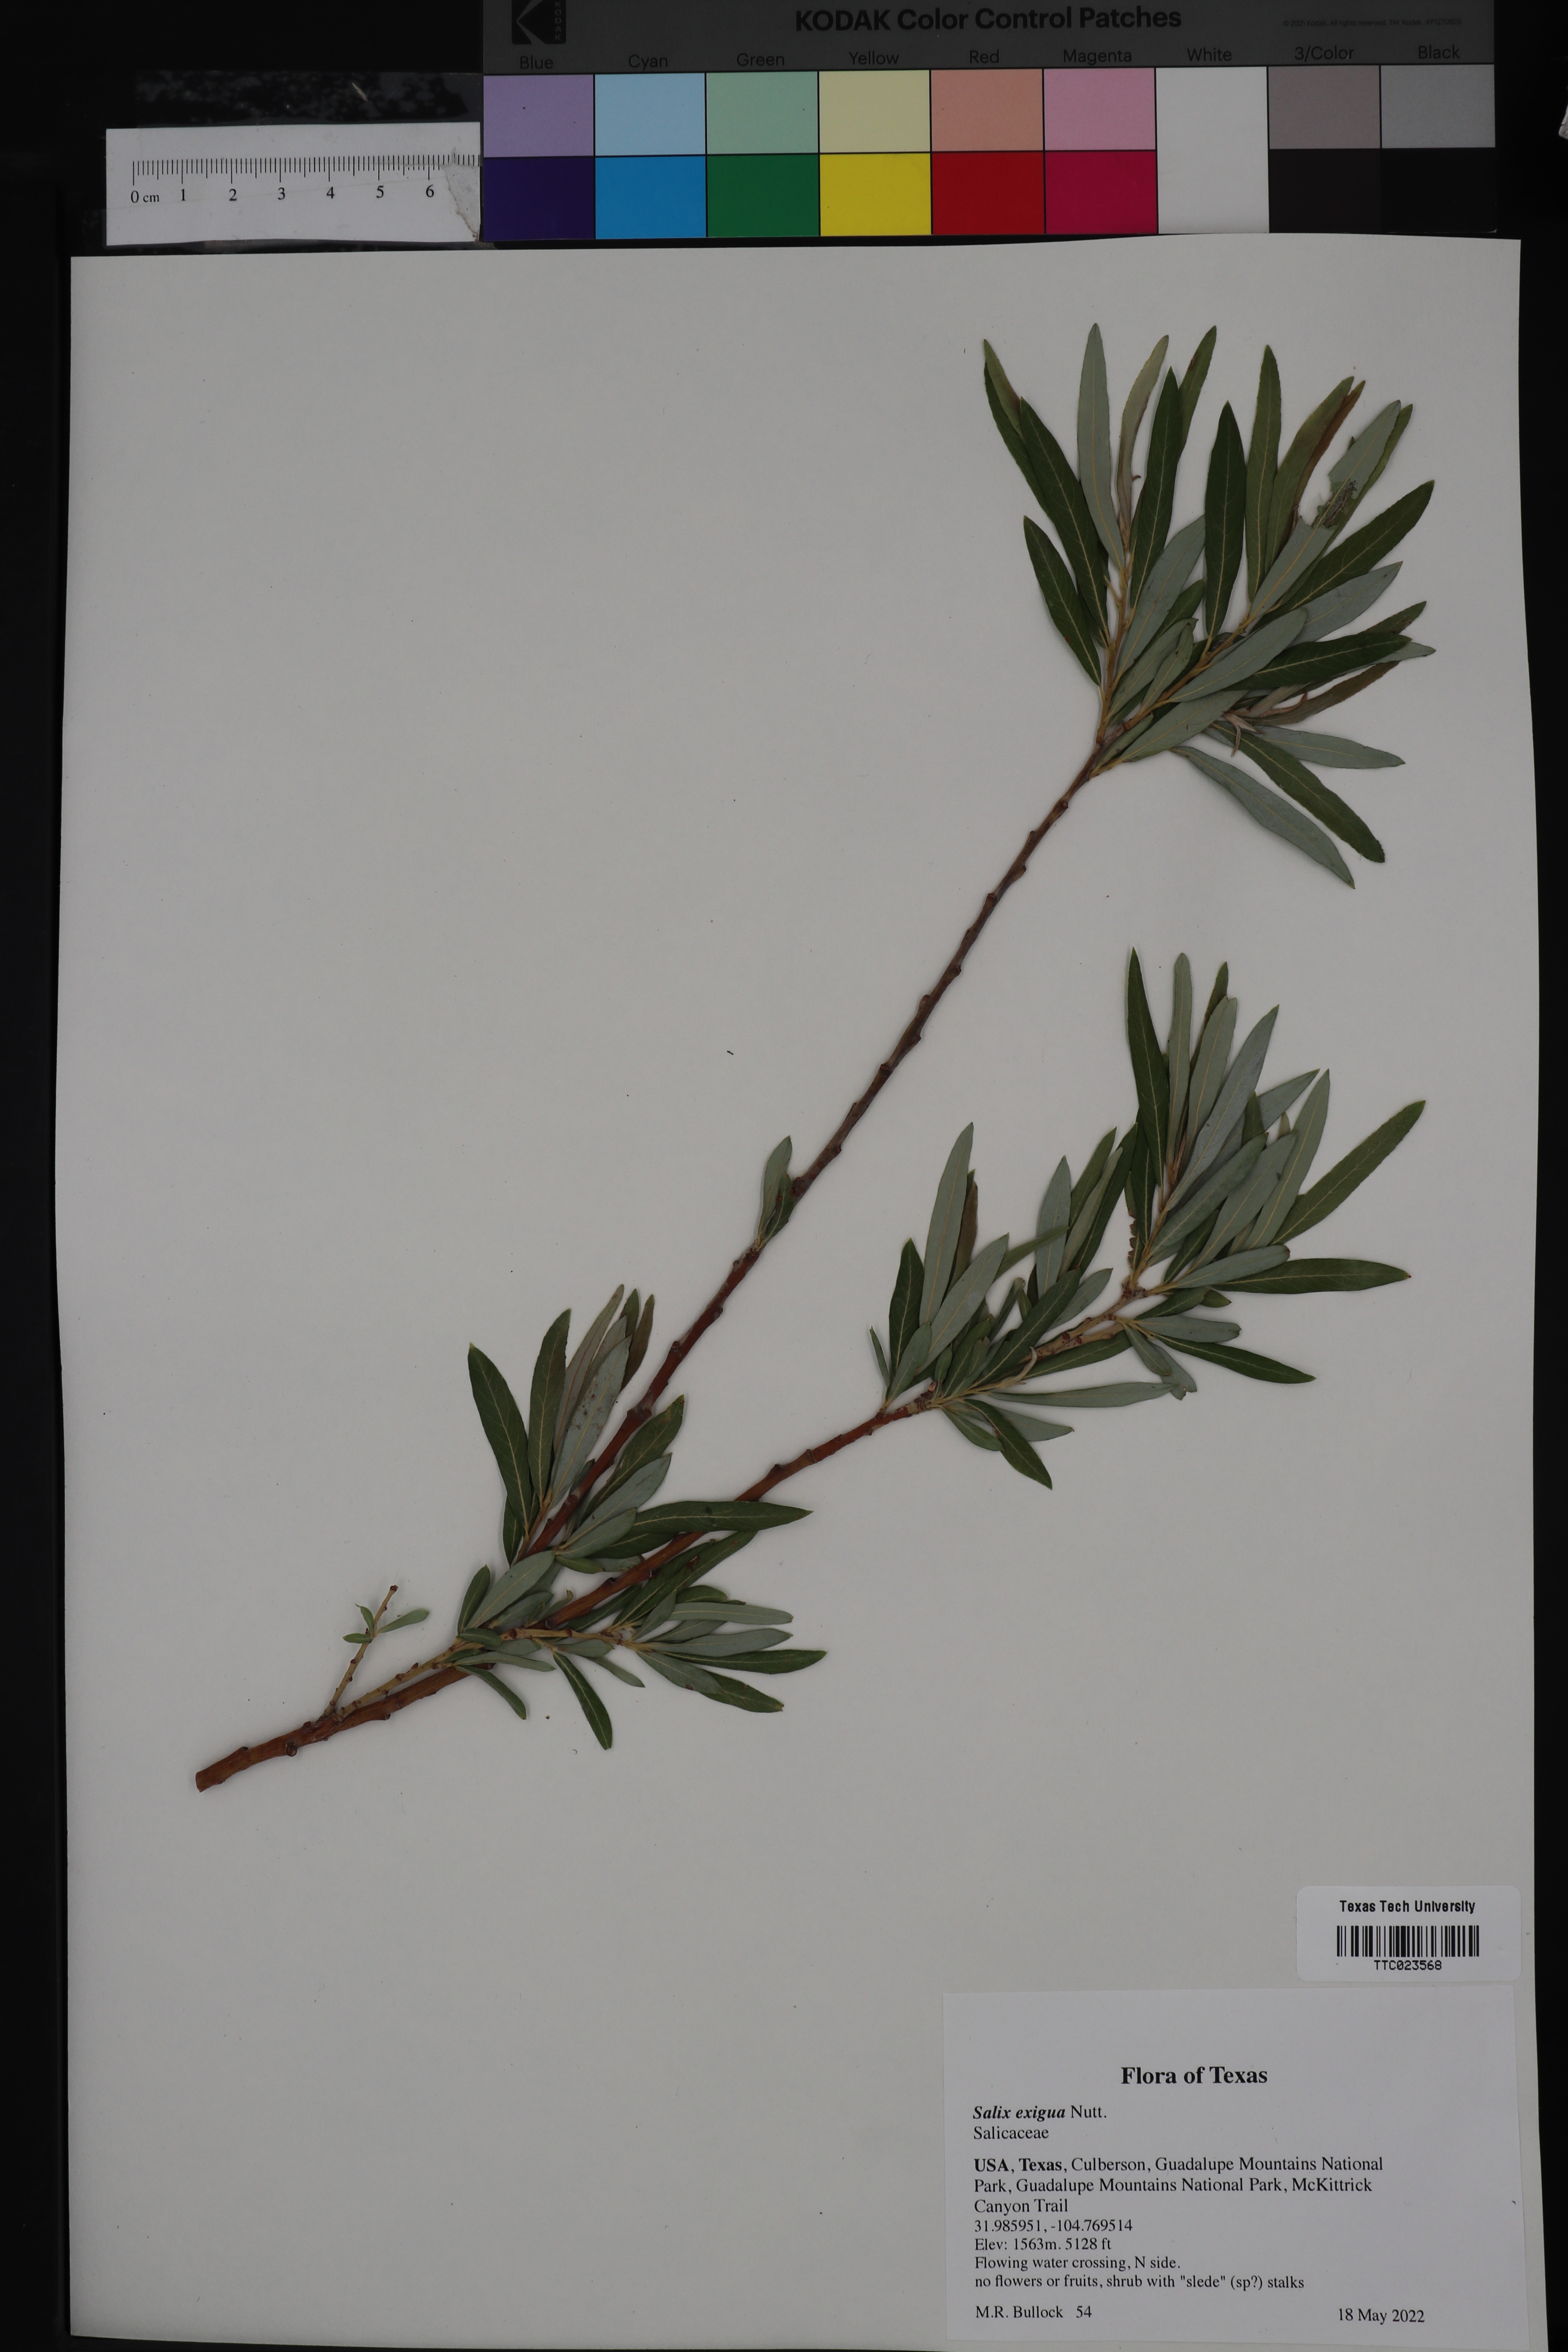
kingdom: Plantae
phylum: Tracheophyta
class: Magnoliopsida
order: Malpighiales
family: Salicaceae
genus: Salix
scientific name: Salix exigua
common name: Coyote willow
